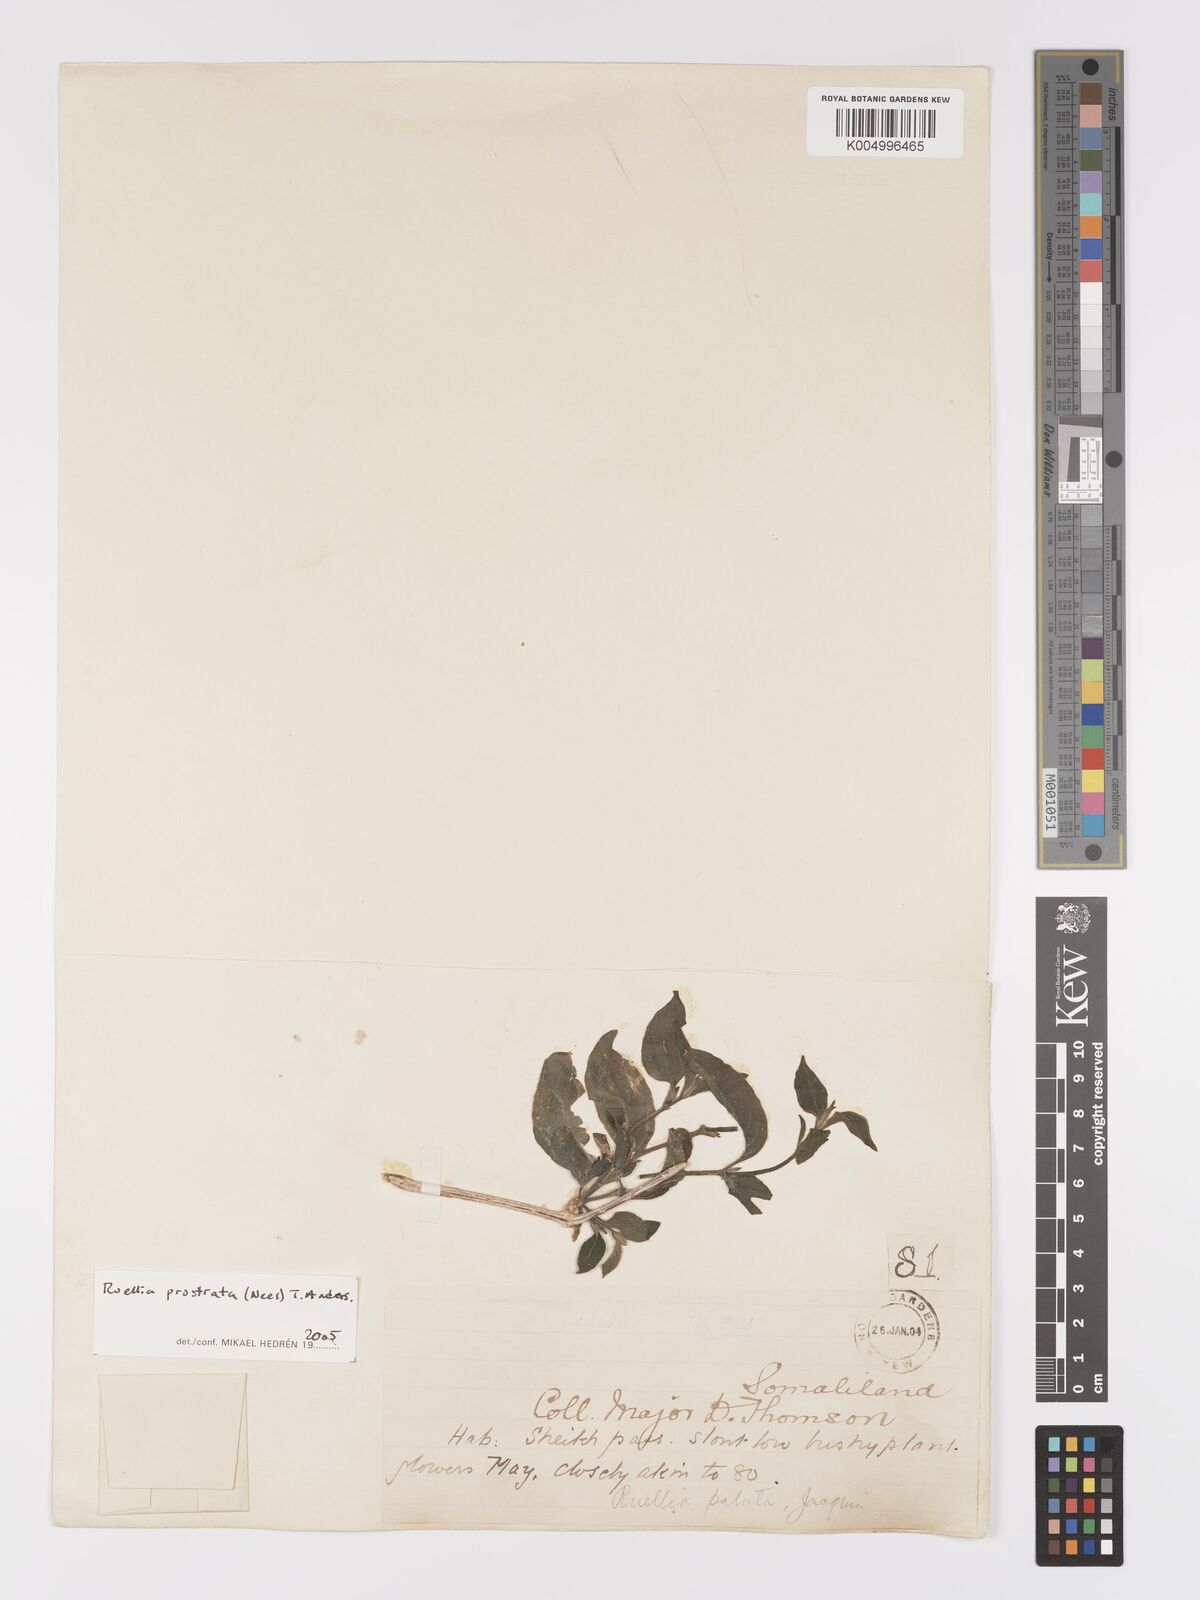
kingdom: Plantae
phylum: Tracheophyta
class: Magnoliopsida
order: Lamiales
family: Acanthaceae
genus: Ruellia
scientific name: Ruellia
